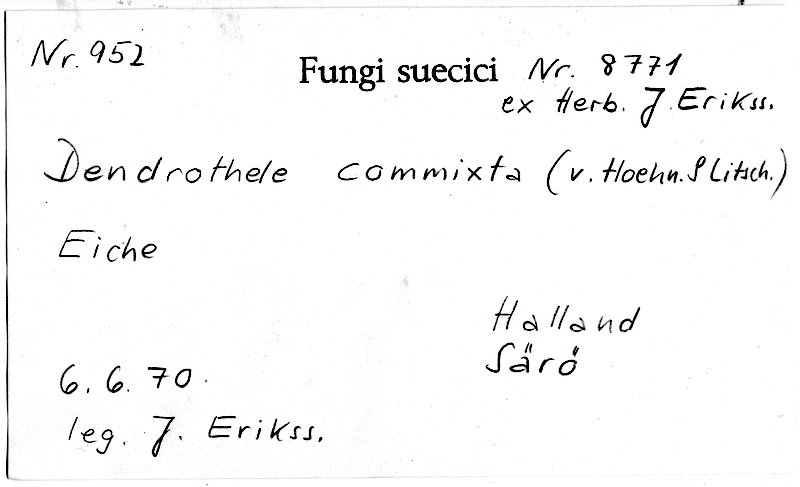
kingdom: Plantae
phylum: Tracheophyta
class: Magnoliopsida
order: Fagales
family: Fagaceae
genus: Quercus
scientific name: Quercus
